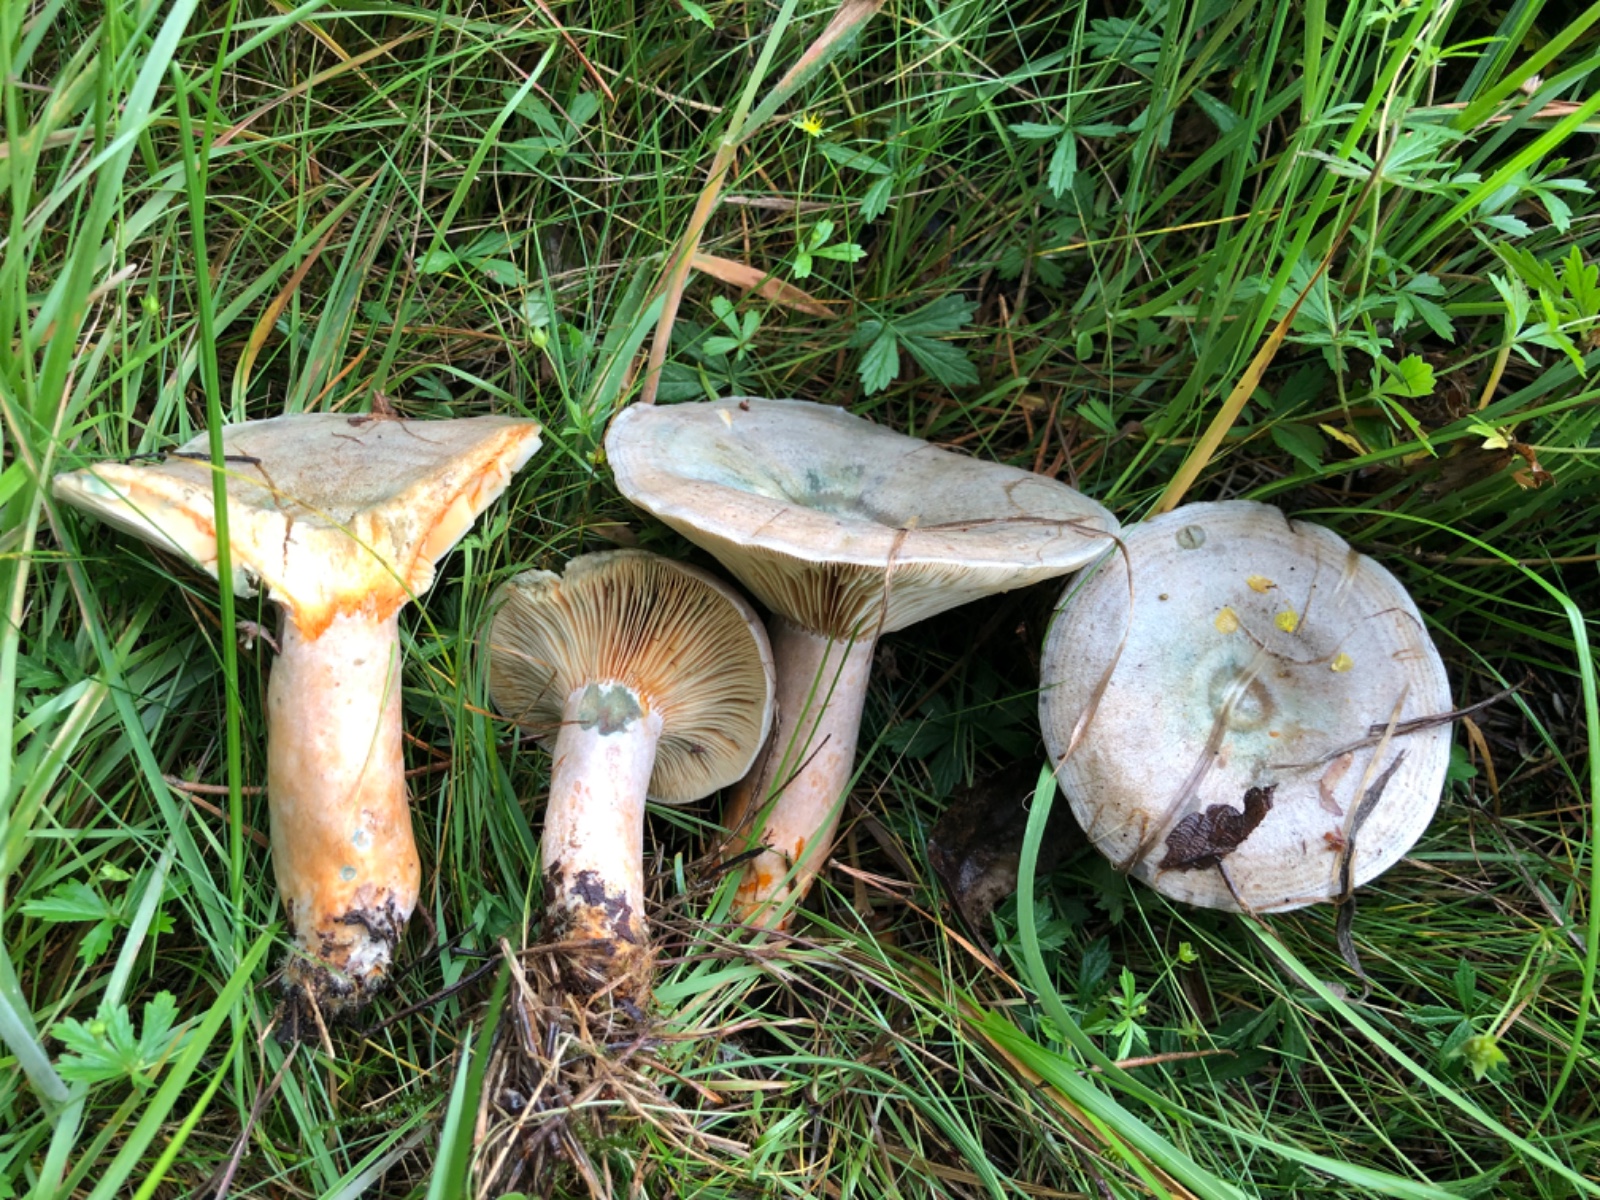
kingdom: Fungi
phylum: Basidiomycota
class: Agaricomycetes
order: Russulales
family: Russulaceae
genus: Lactarius
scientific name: Lactarius quieticolor
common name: tvefarvet mælkehat
